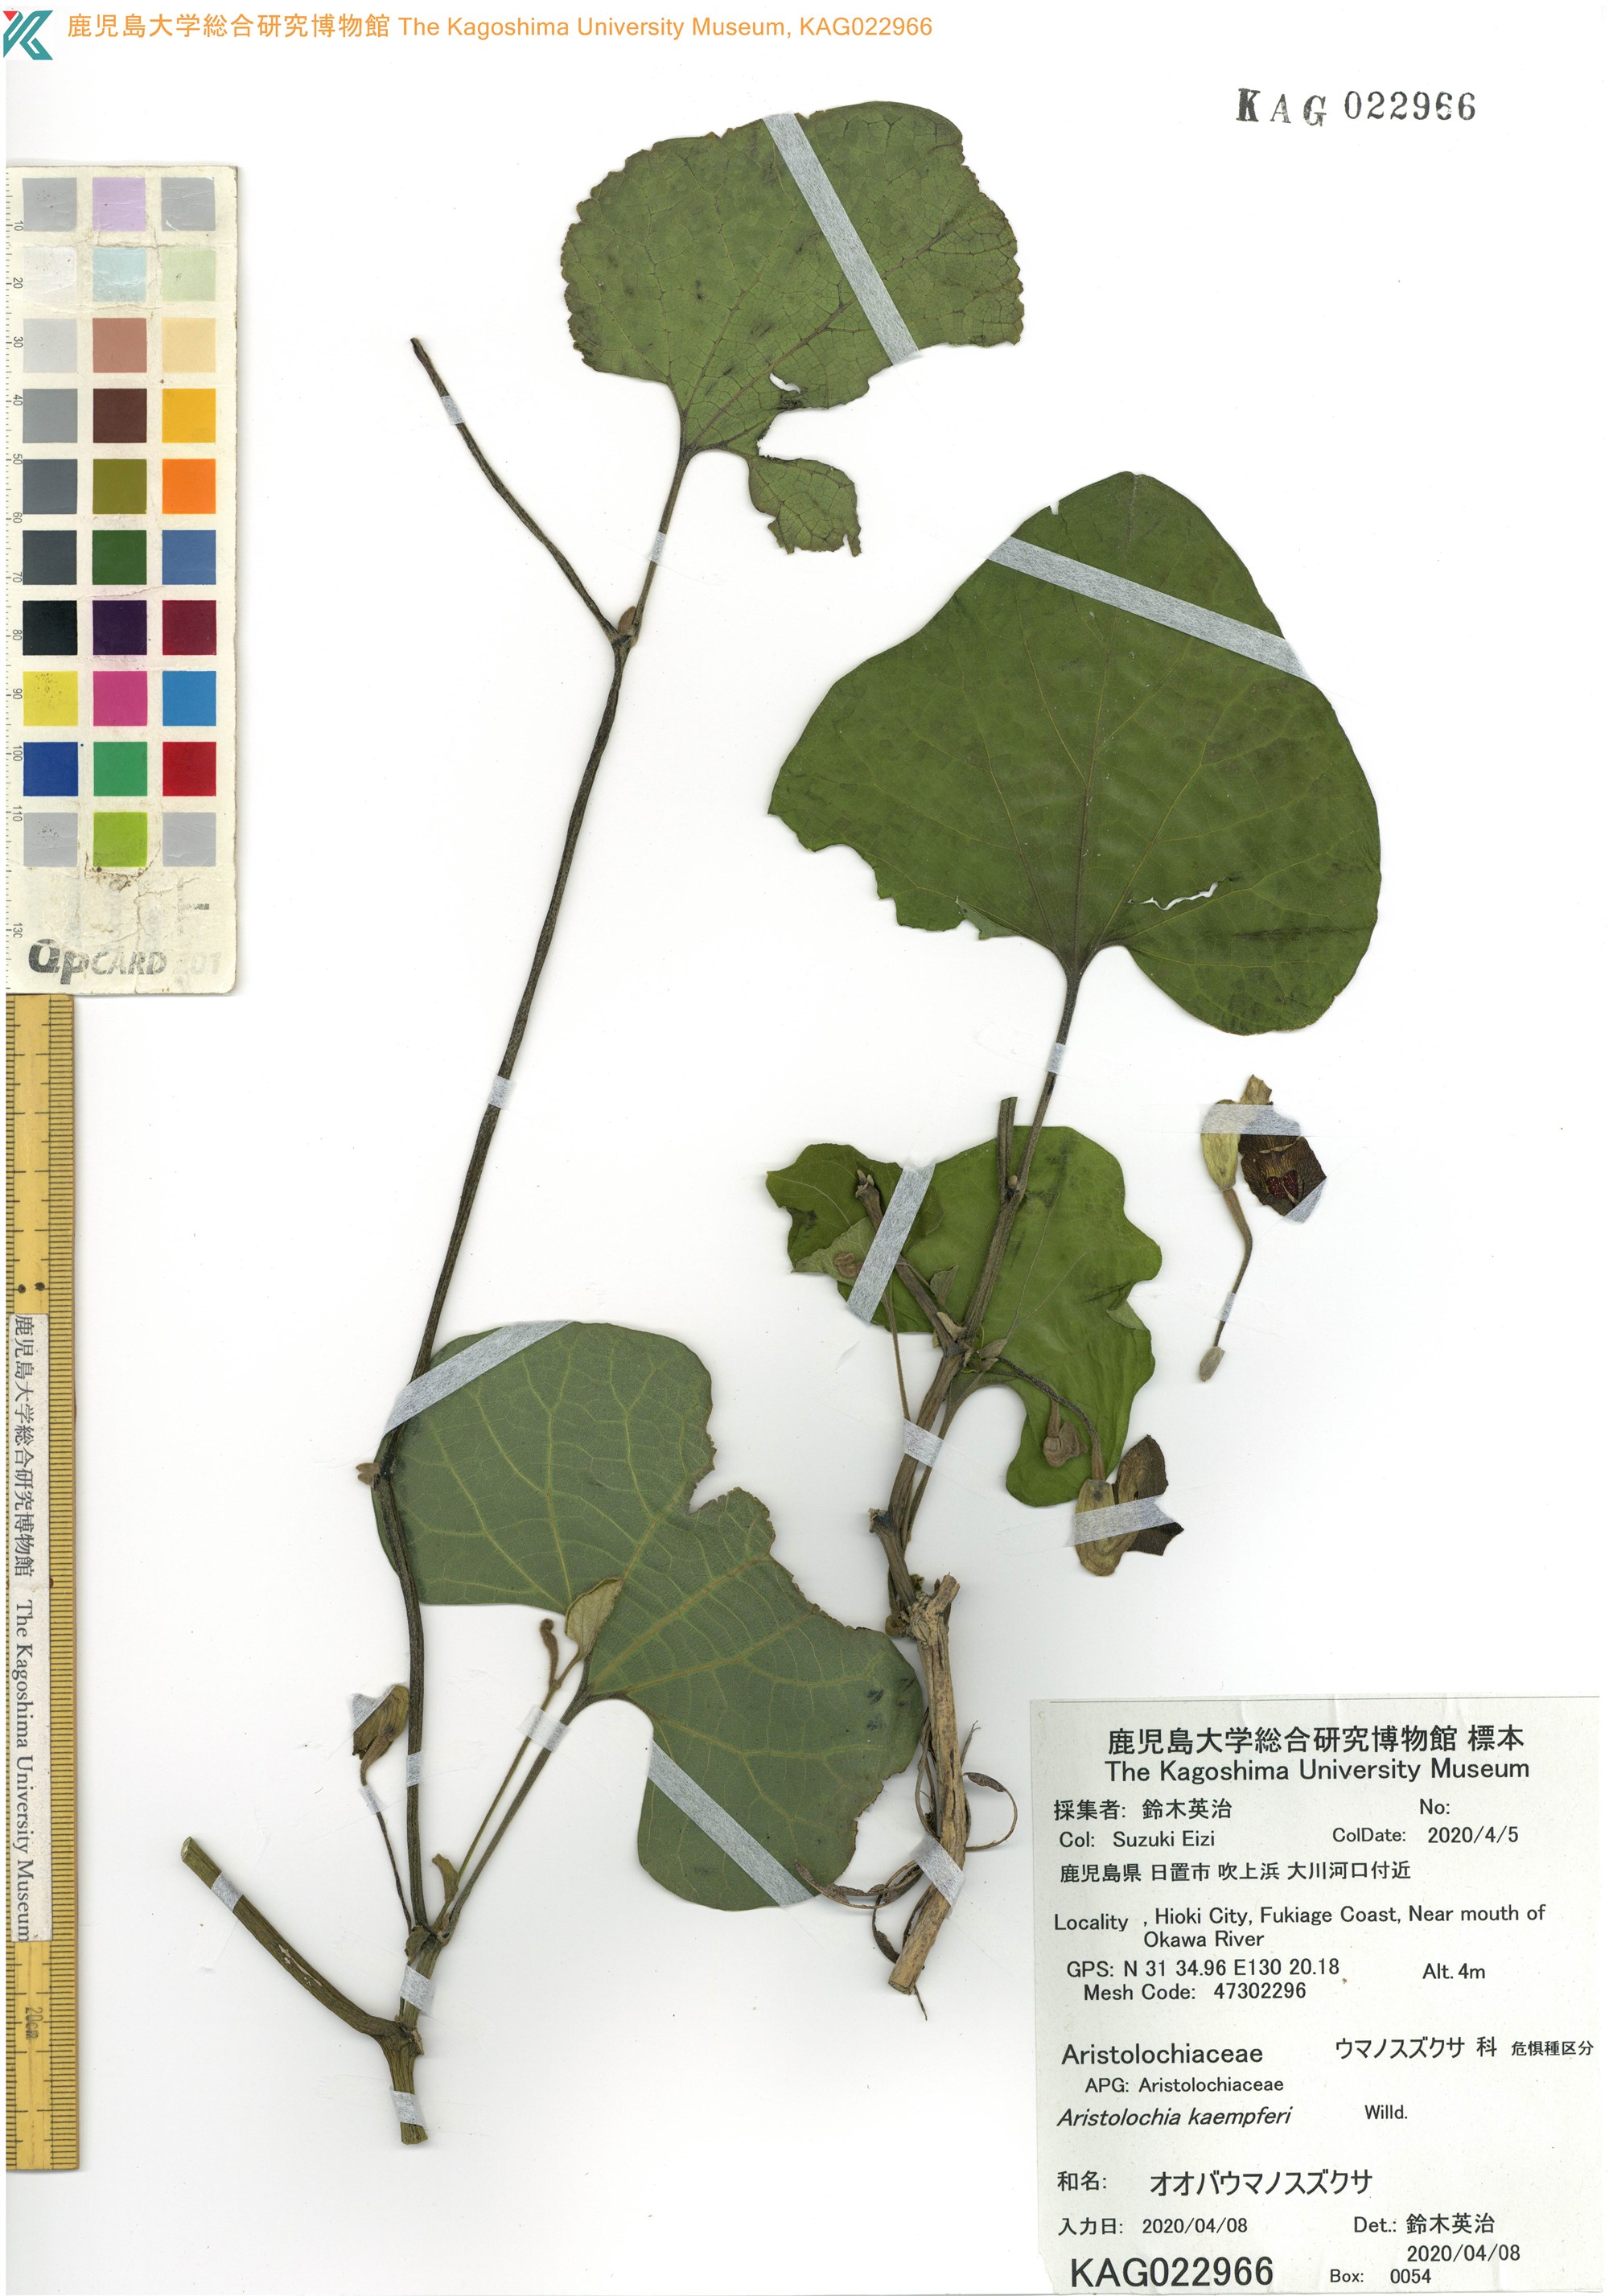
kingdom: Plantae
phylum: Tracheophyta
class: Magnoliopsida
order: Piperales
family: Aristolochiaceae
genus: Isotrema
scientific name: Isotrema kaempferi
